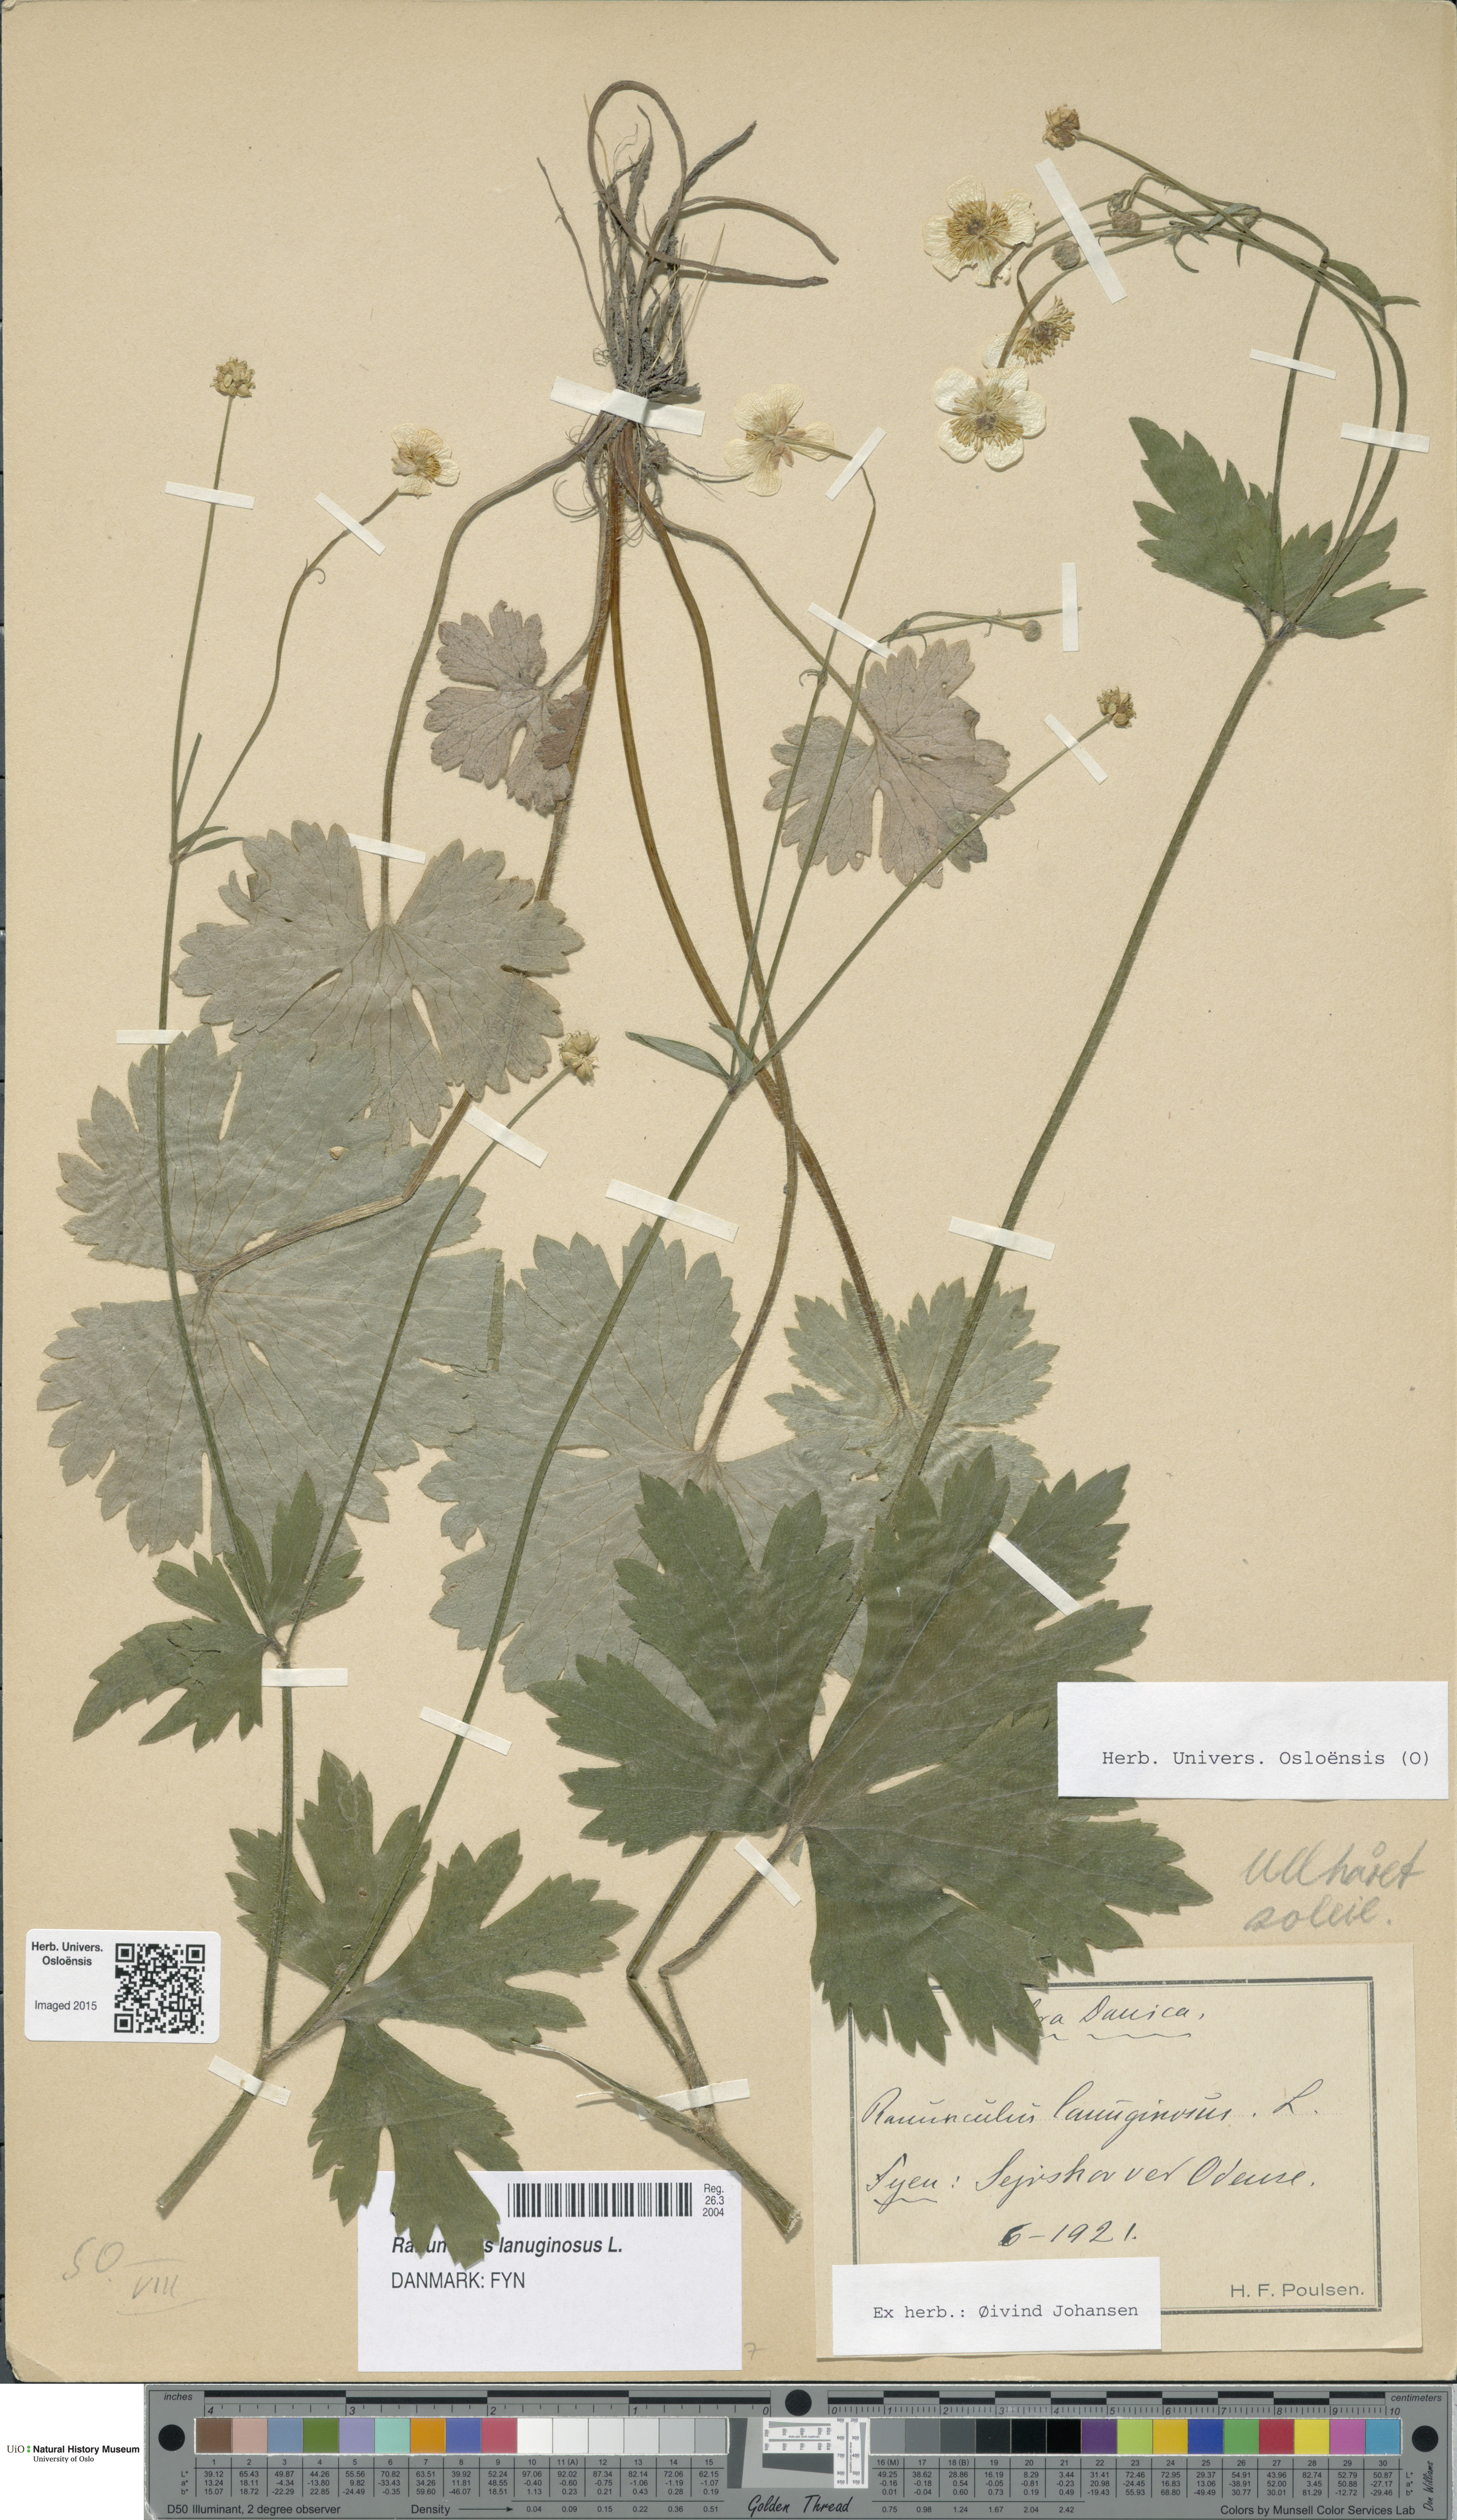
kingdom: Plantae
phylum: Tracheophyta
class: Magnoliopsida
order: Ranunculales
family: Ranunculaceae
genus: Ranunculus
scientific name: Ranunculus lanuginosus
